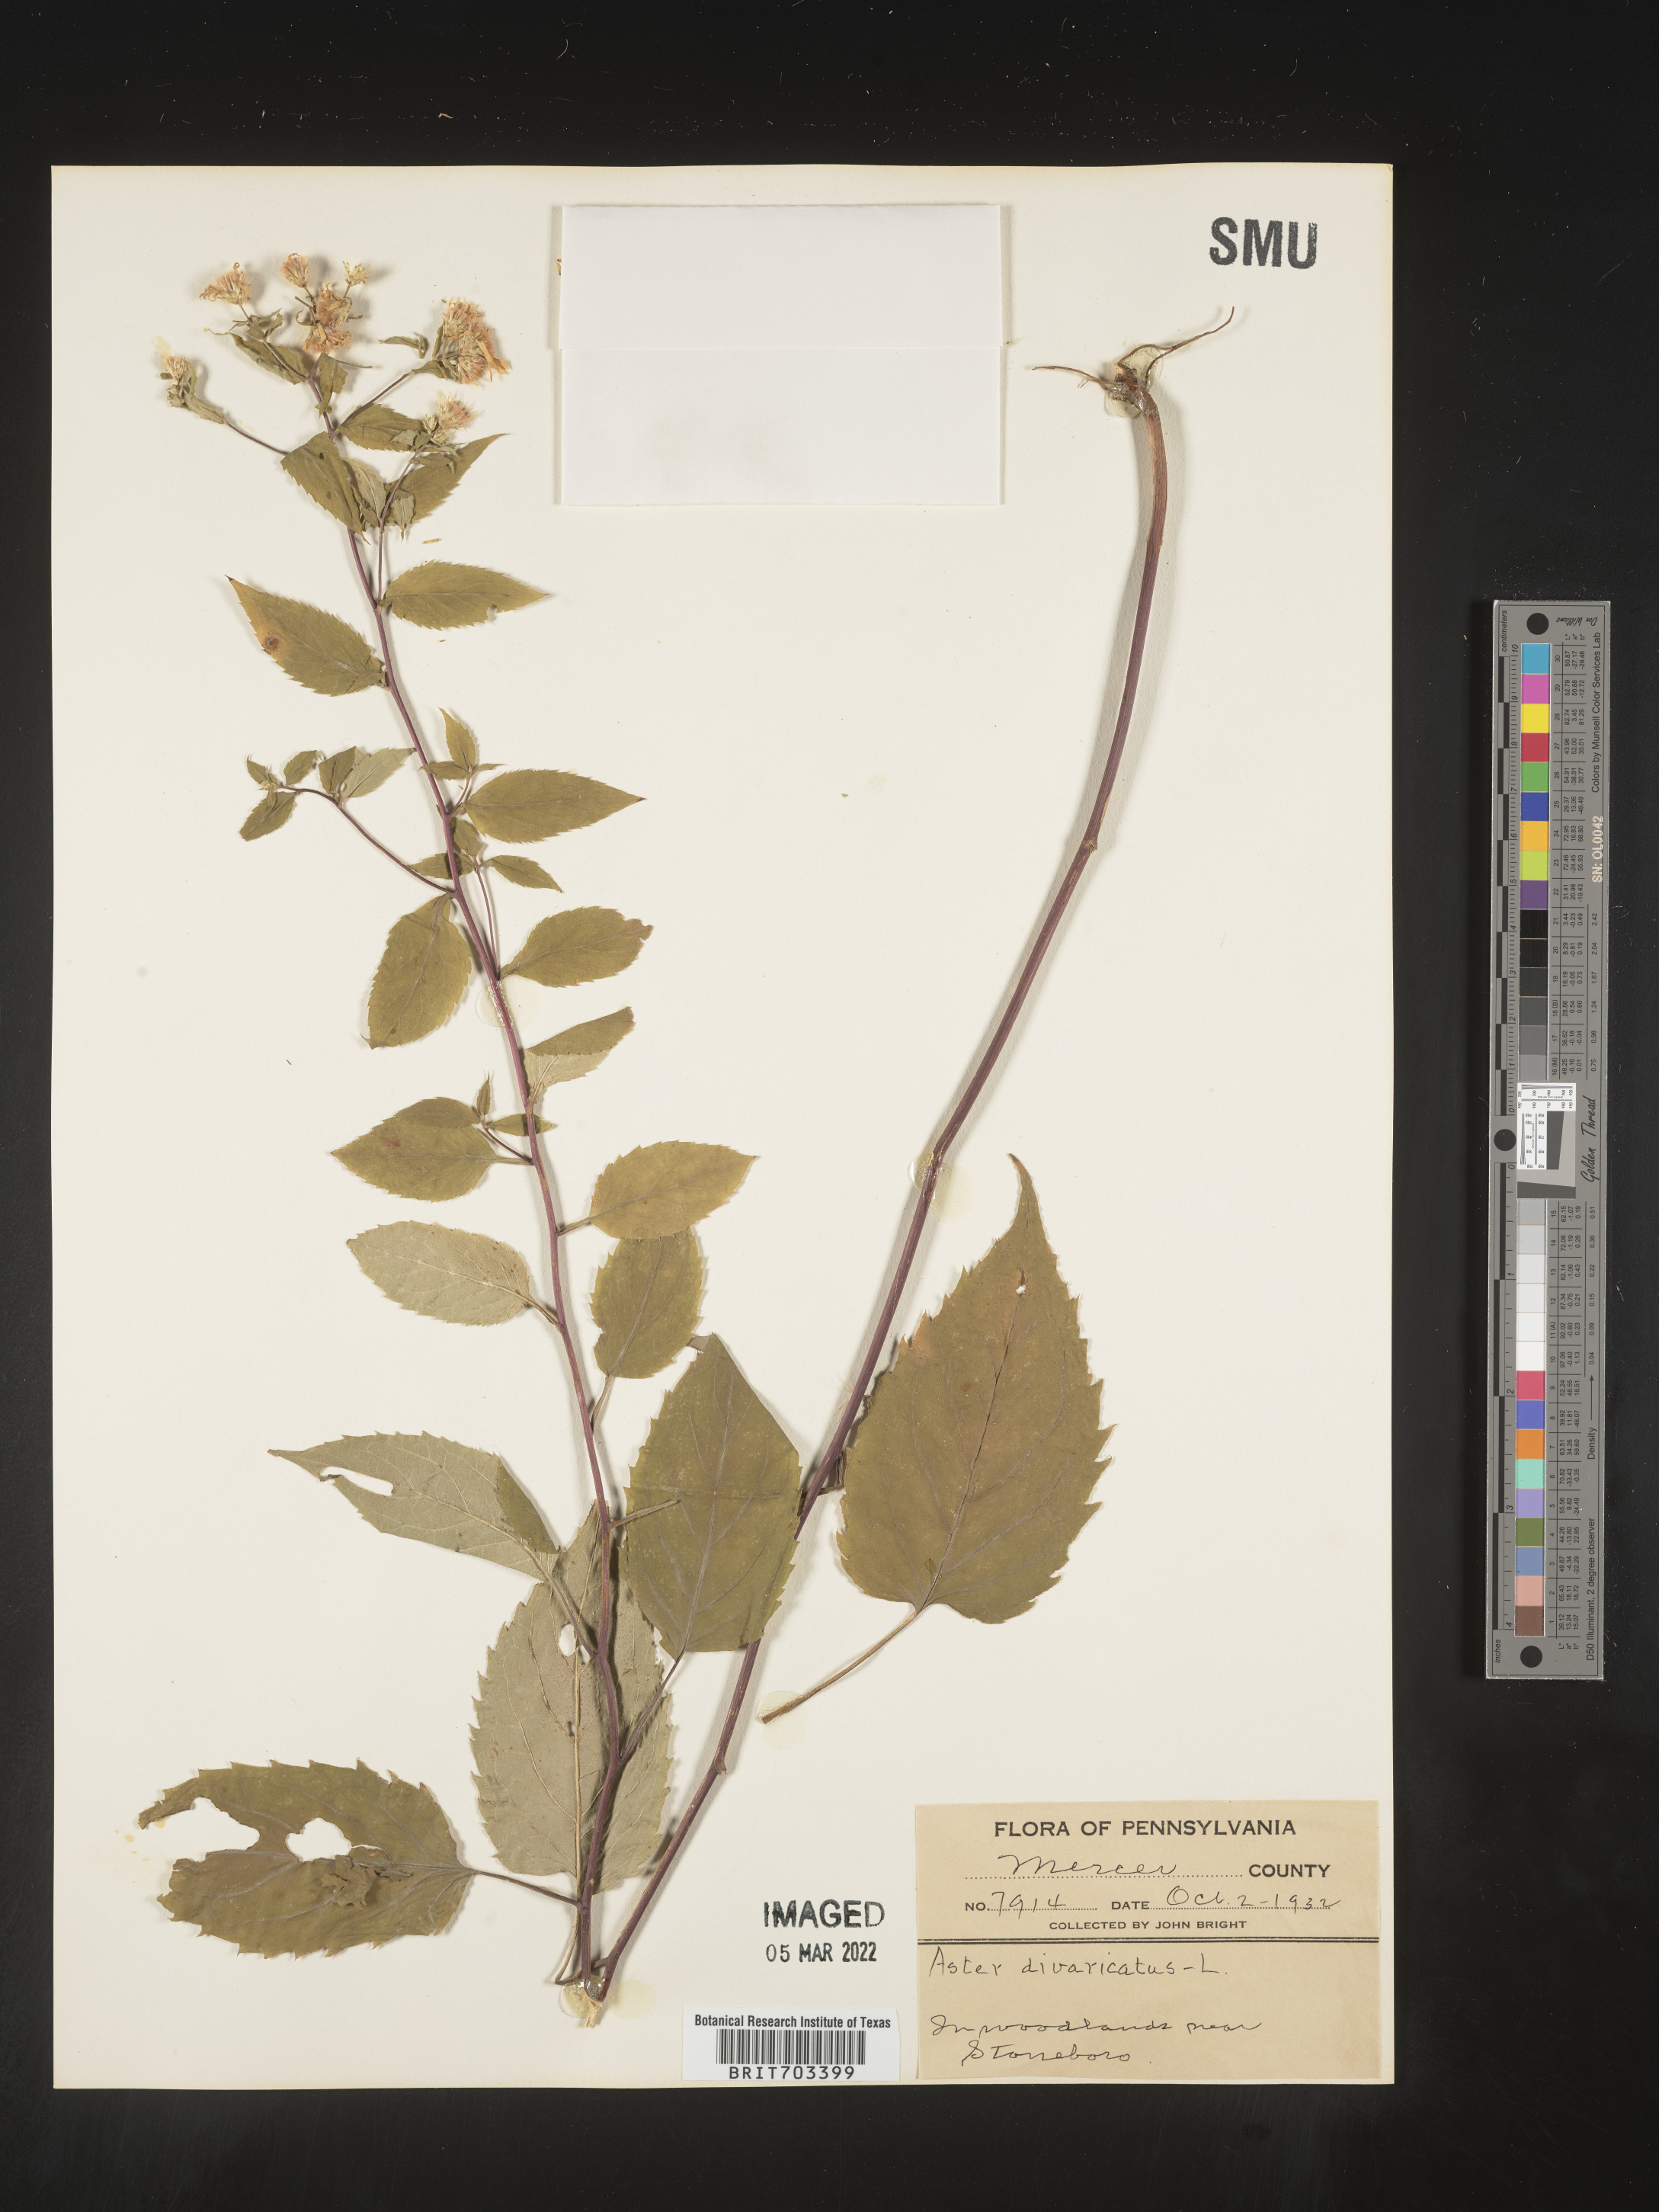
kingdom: Plantae
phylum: Tracheophyta
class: Magnoliopsida
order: Asterales
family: Asteraceae
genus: Eurybia
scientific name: Eurybia divaricata
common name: White wood aster
